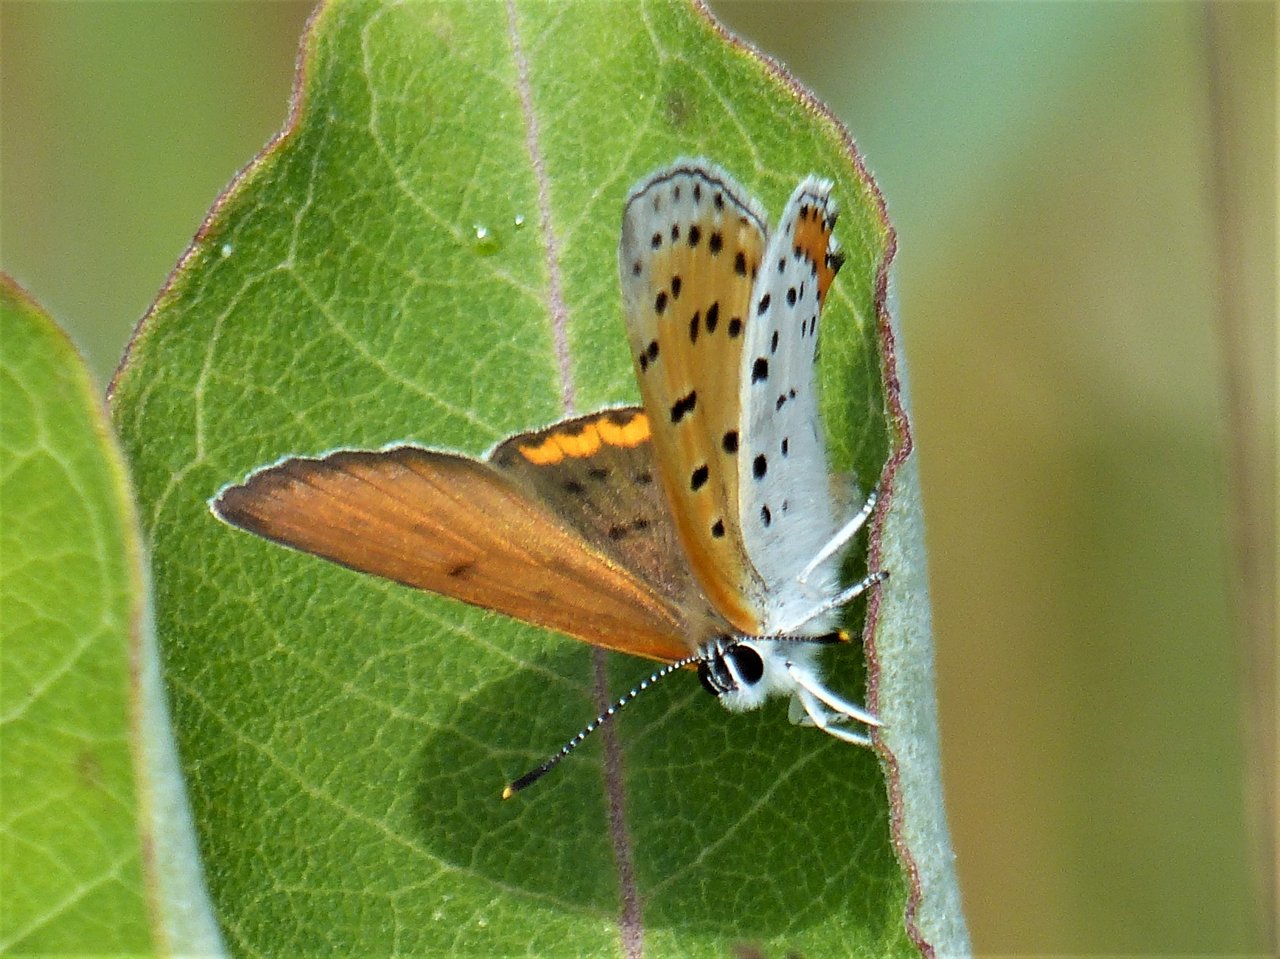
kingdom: Animalia
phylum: Arthropoda
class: Insecta
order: Lepidoptera
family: Sesiidae
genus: Sesia
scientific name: Sesia Lycaena hyllus
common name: Bronze Copper
